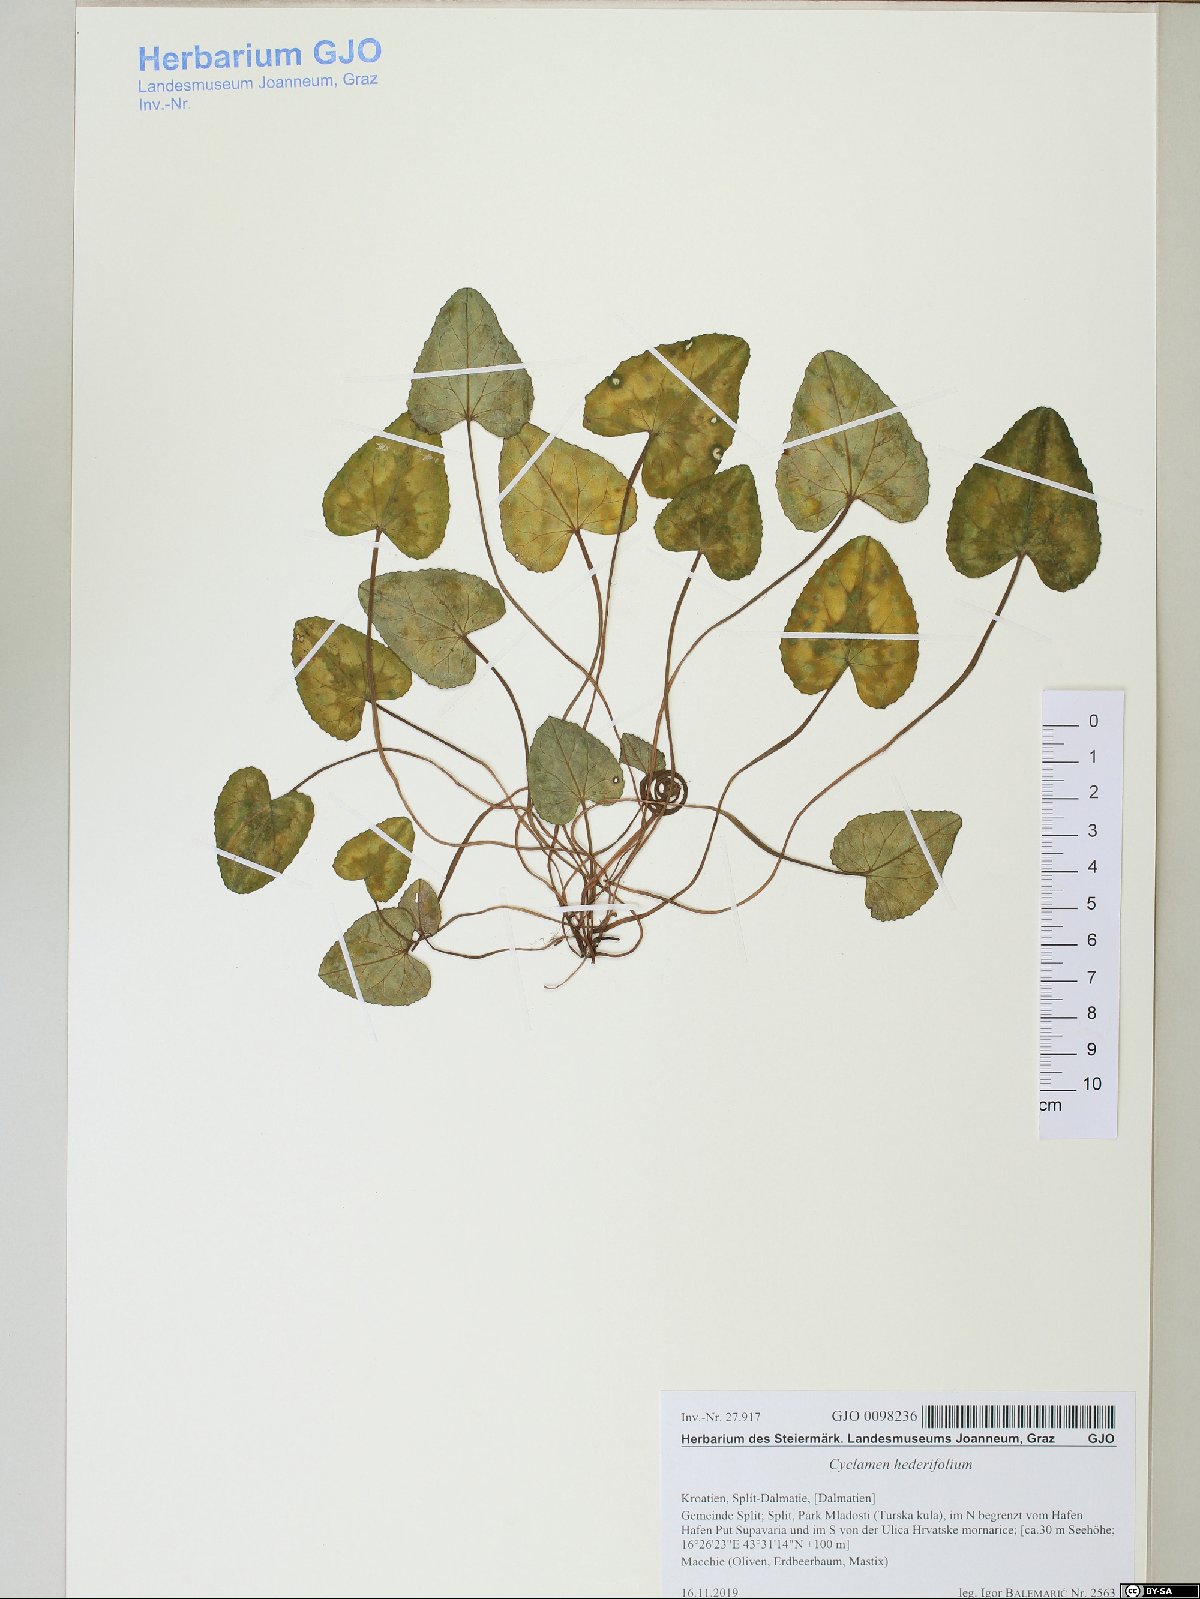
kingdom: Plantae
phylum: Tracheophyta
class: Magnoliopsida
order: Ericales
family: Primulaceae
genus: Cyclamen
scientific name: Cyclamen hederifolium
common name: Sowbread
